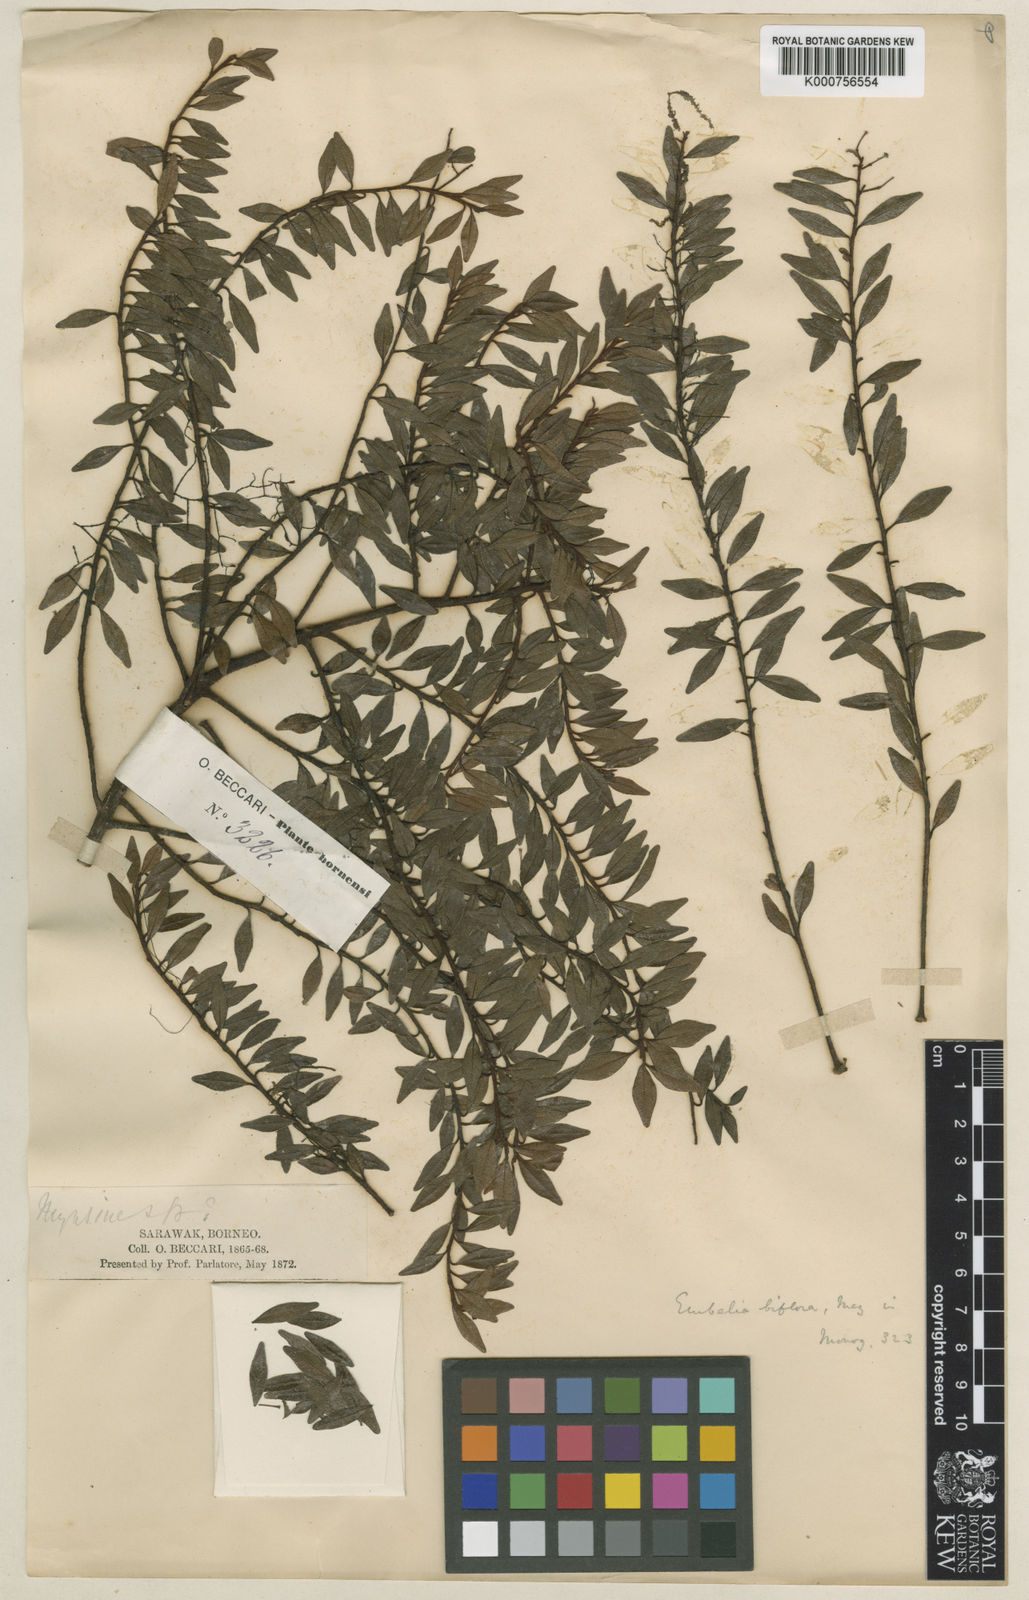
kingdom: Plantae
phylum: Tracheophyta
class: Magnoliopsida
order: Ericales
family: Primulaceae
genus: Embelia
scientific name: Embelia biflora
